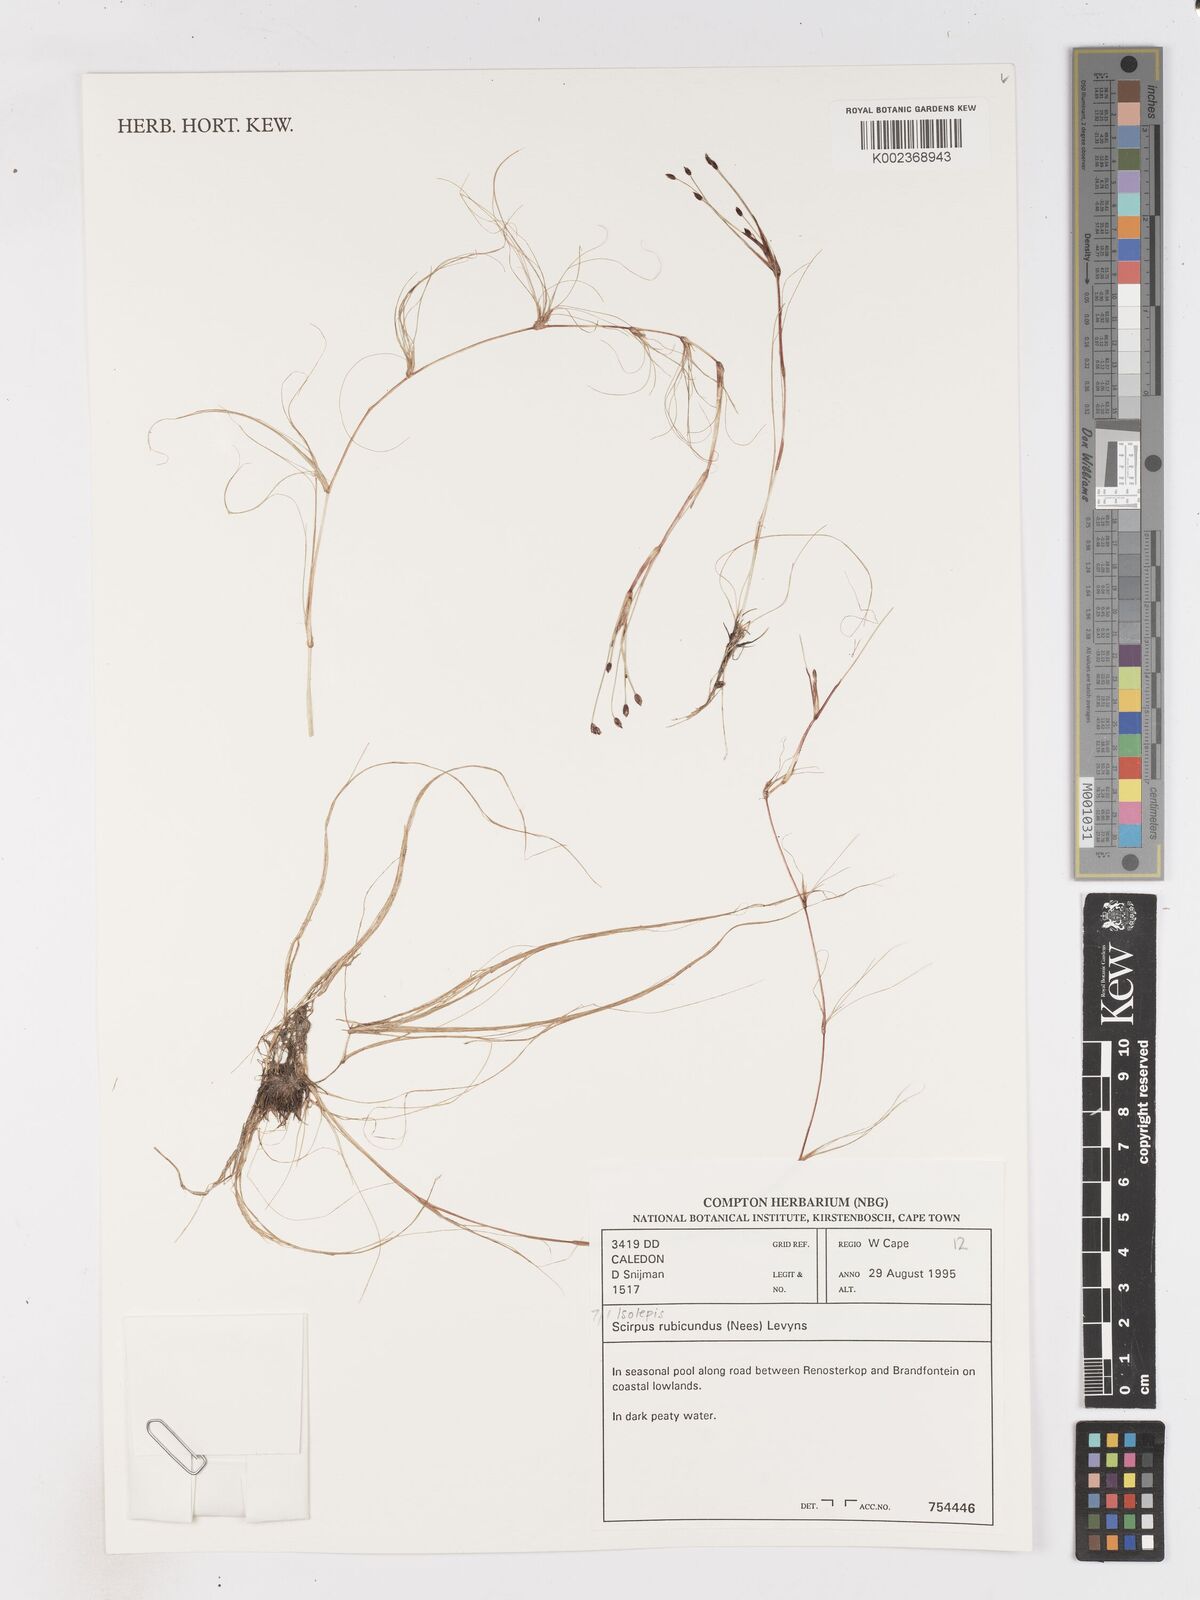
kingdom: Plantae
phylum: Tracheophyta
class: Liliopsida
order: Poales
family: Cyperaceae
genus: Isolepis
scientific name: Isolepis rubicunda
